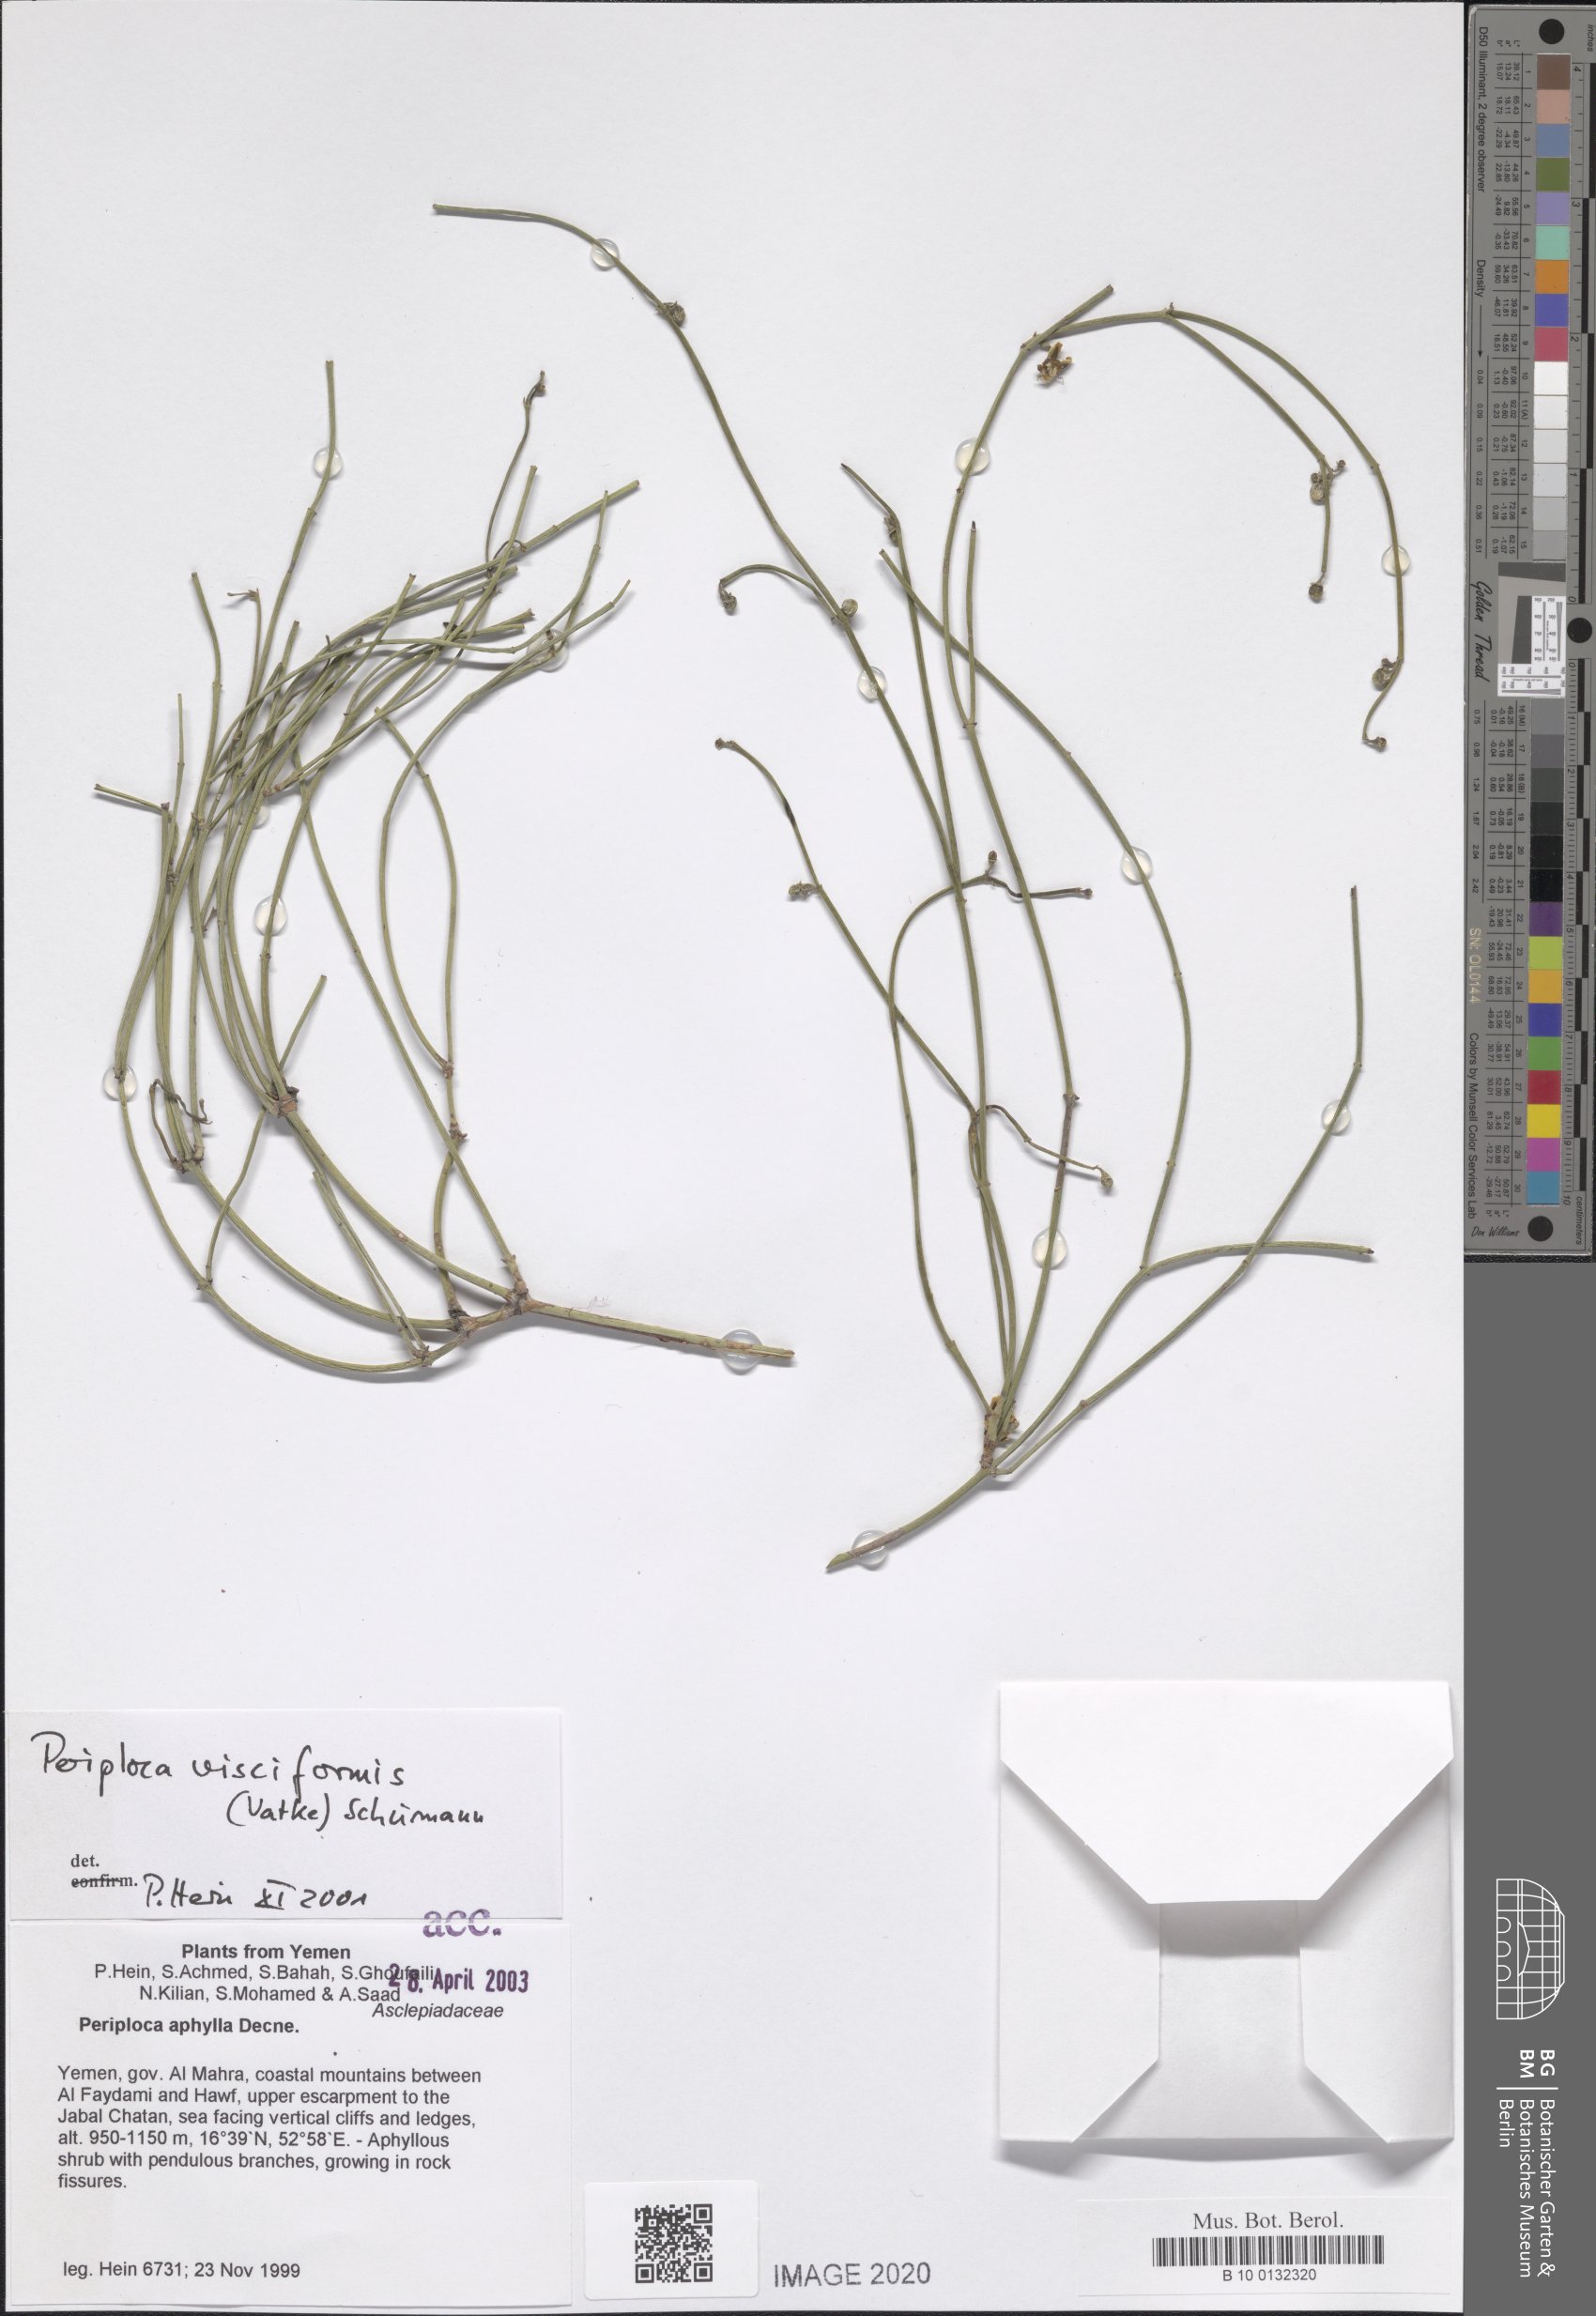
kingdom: Plantae
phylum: Tracheophyta
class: Magnoliopsida
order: Gentianales
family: Apocynaceae
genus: Periploca
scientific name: Periploca visciformis
